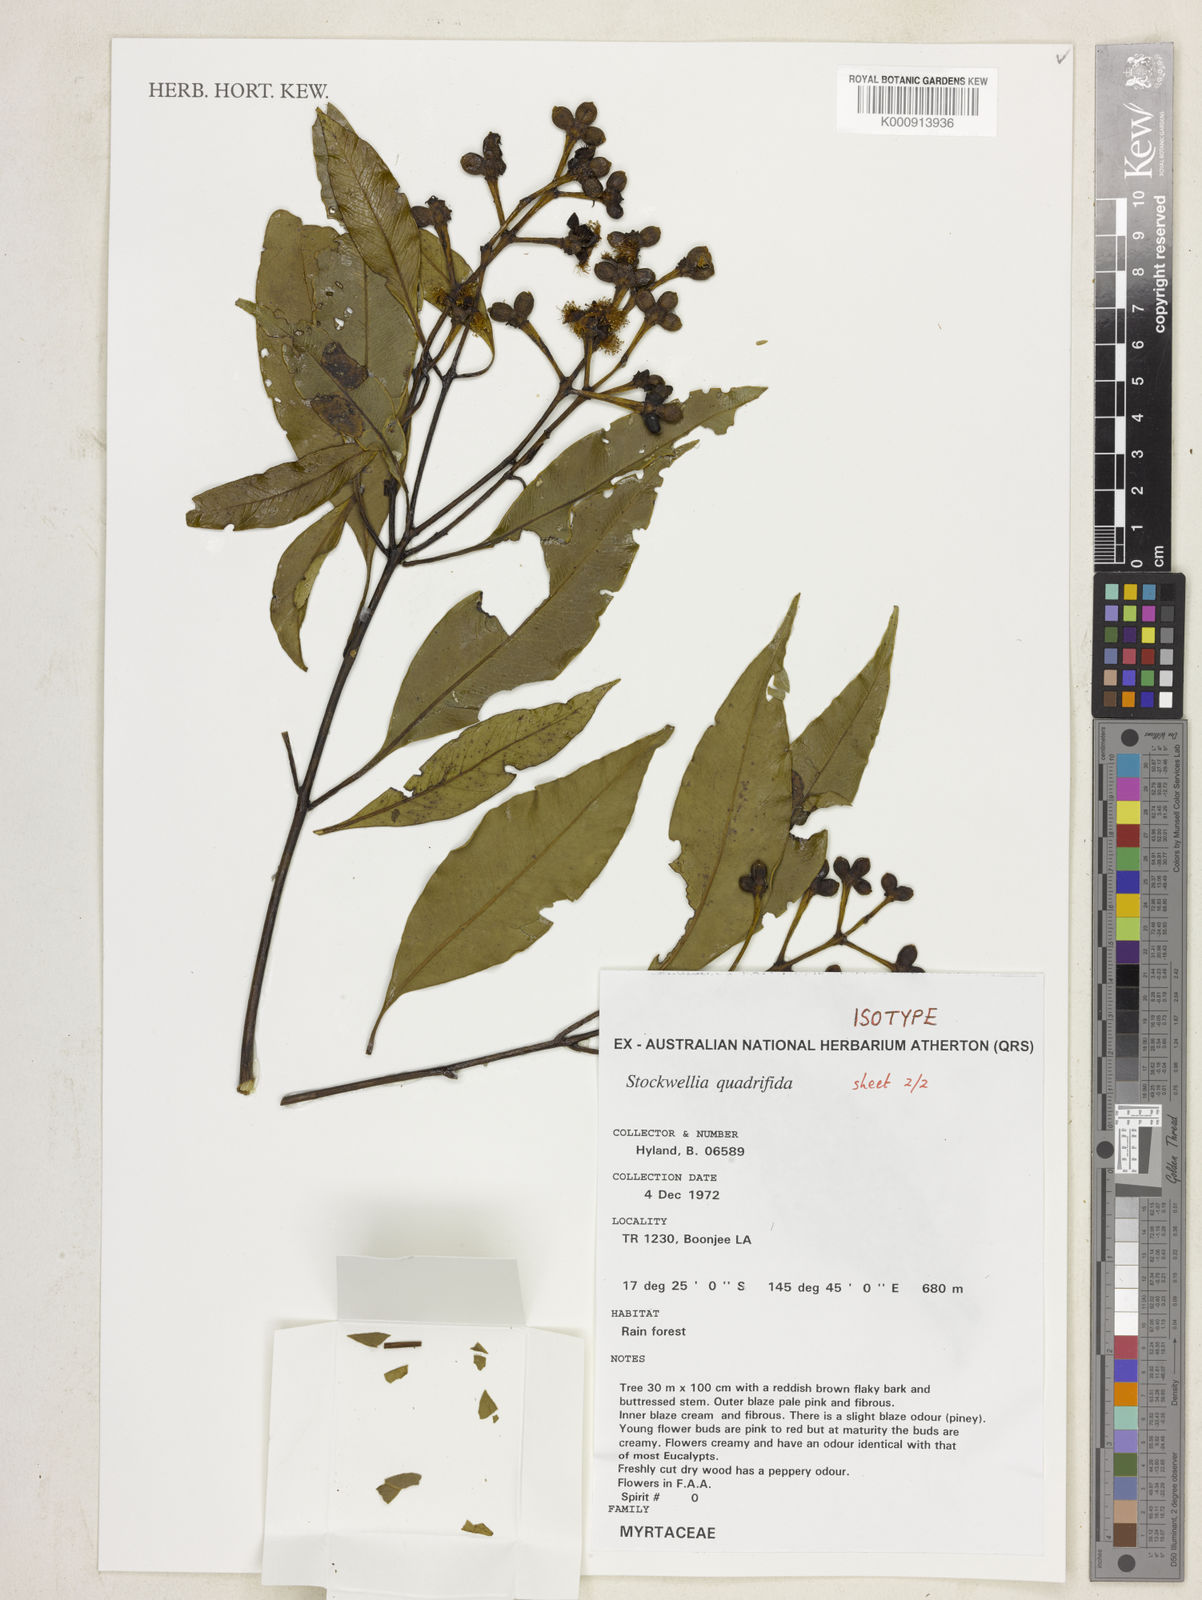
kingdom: Plantae
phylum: Tracheophyta
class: Magnoliopsida
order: Myrtales
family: Myrtaceae
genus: Stockwellia
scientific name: Stockwellia quadrifida
